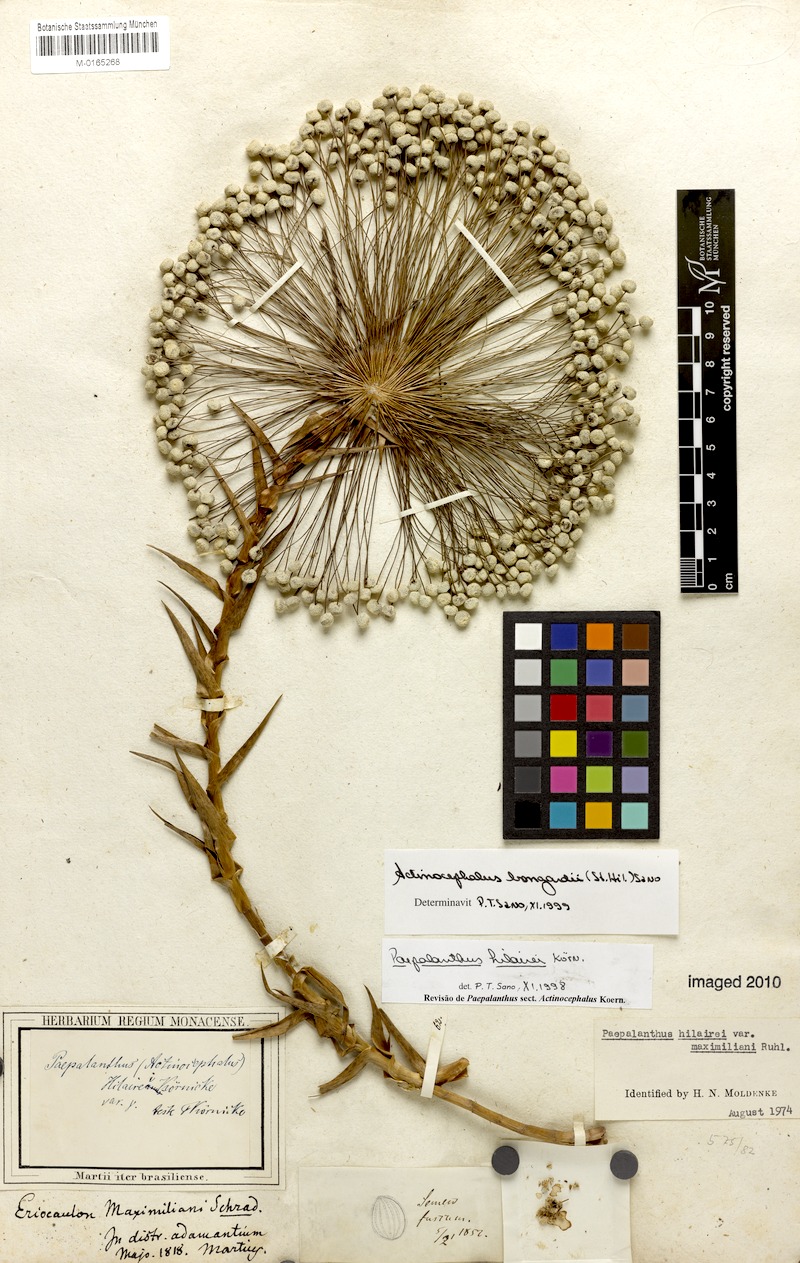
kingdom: Plantae
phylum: Tracheophyta
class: Liliopsida
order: Poales
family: Eriocaulaceae
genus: Paepalanthus
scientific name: Paepalanthus hilairei
